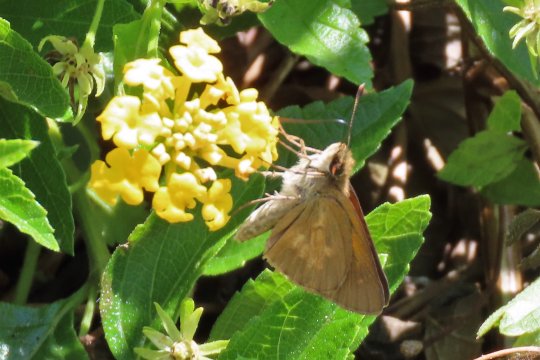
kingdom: Animalia
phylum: Arthropoda
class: Insecta
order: Lepidoptera
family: Hesperiidae
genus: Poanes
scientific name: Poanes viator
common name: Broad-winged Skipper
